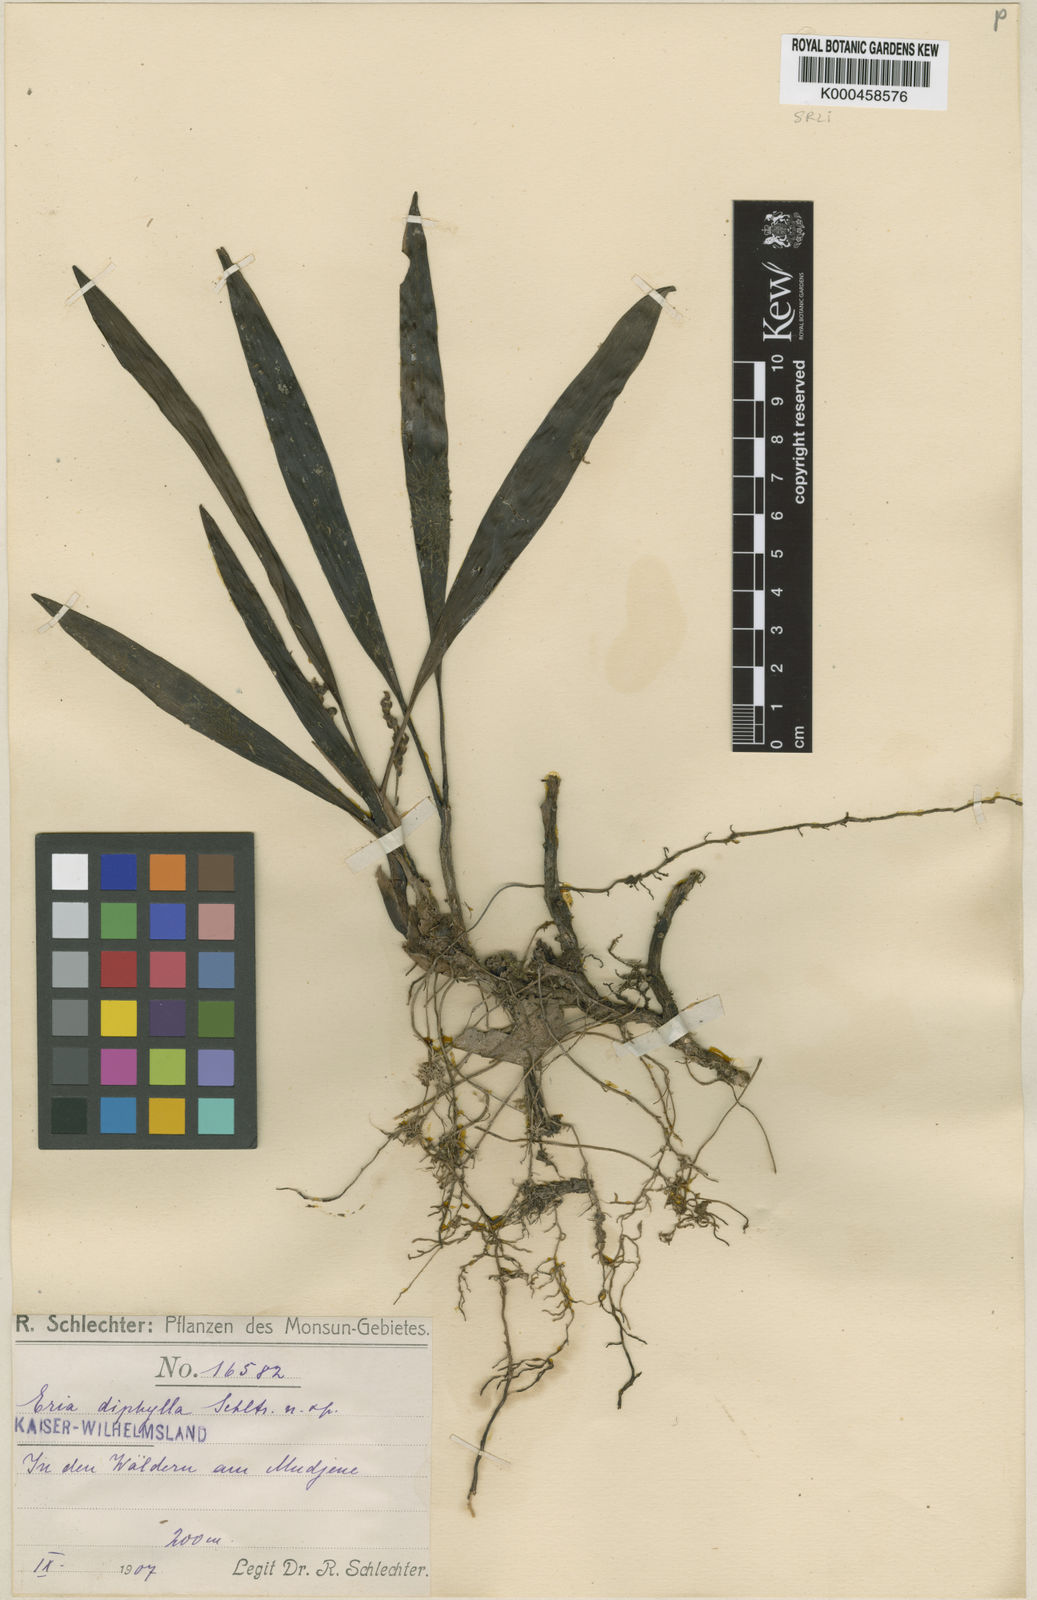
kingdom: Plantae
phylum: Tracheophyta
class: Liliopsida
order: Asparagales
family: Orchidaceae
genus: Bryobium
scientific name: Bryobium eriaeoides
